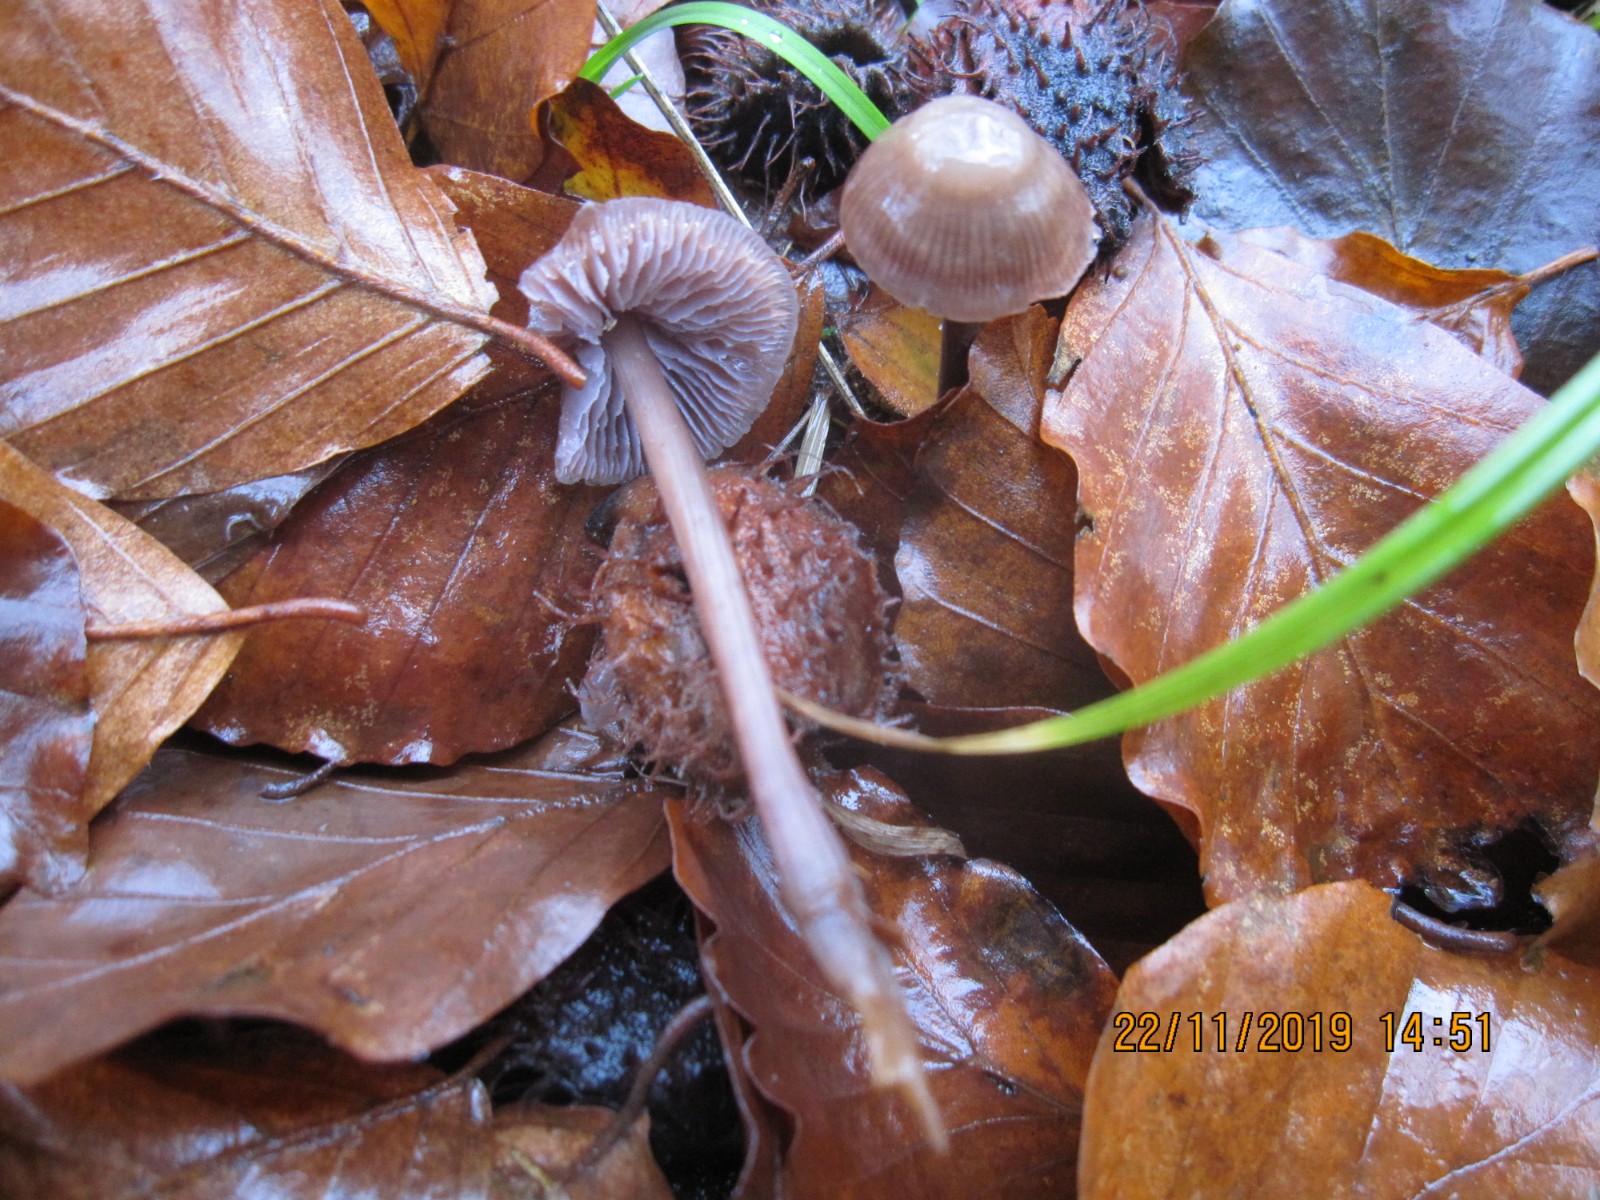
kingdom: Fungi
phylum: Basidiomycota
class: Agaricomycetes
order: Agaricales
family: Mycenaceae
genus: Prunulus
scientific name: Prunulus diosmus
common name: tobaks-huesvamp
